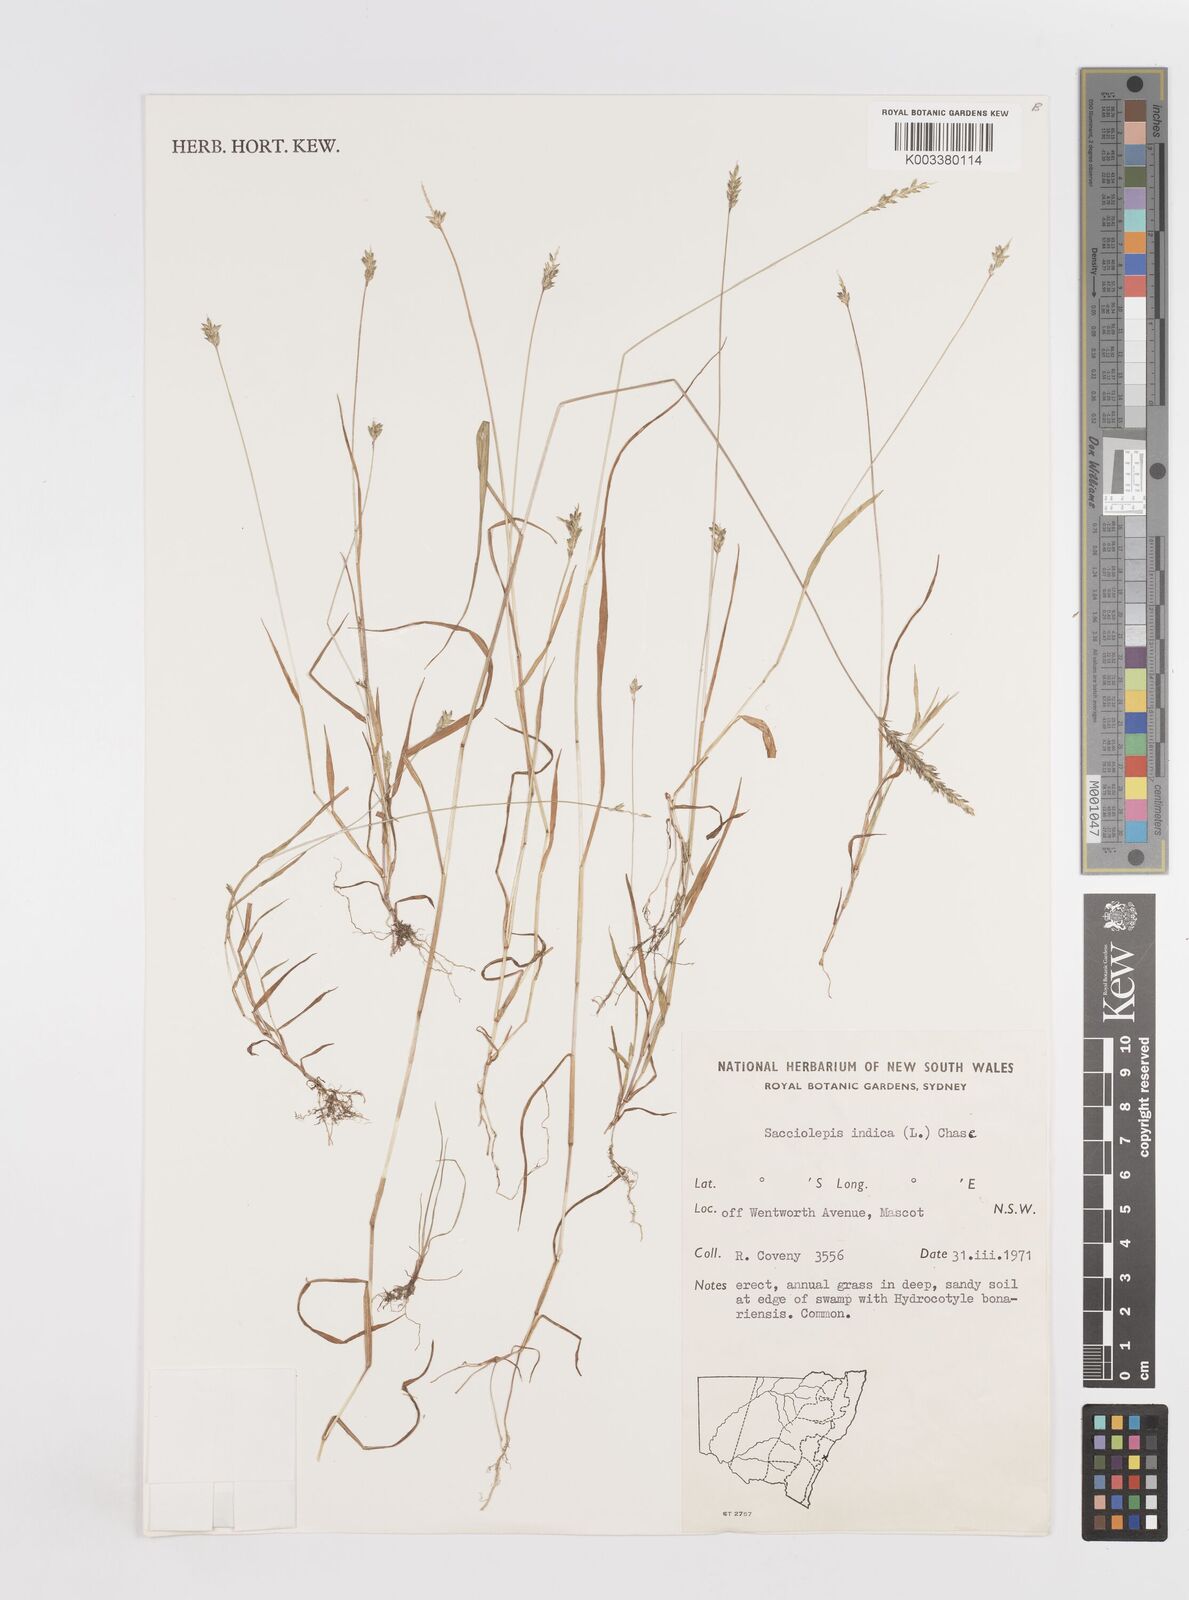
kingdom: Plantae
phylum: Tracheophyta
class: Liliopsida
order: Poales
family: Poaceae
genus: Sacciolepis
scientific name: Sacciolepis indica
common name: Glenwoodgrass
